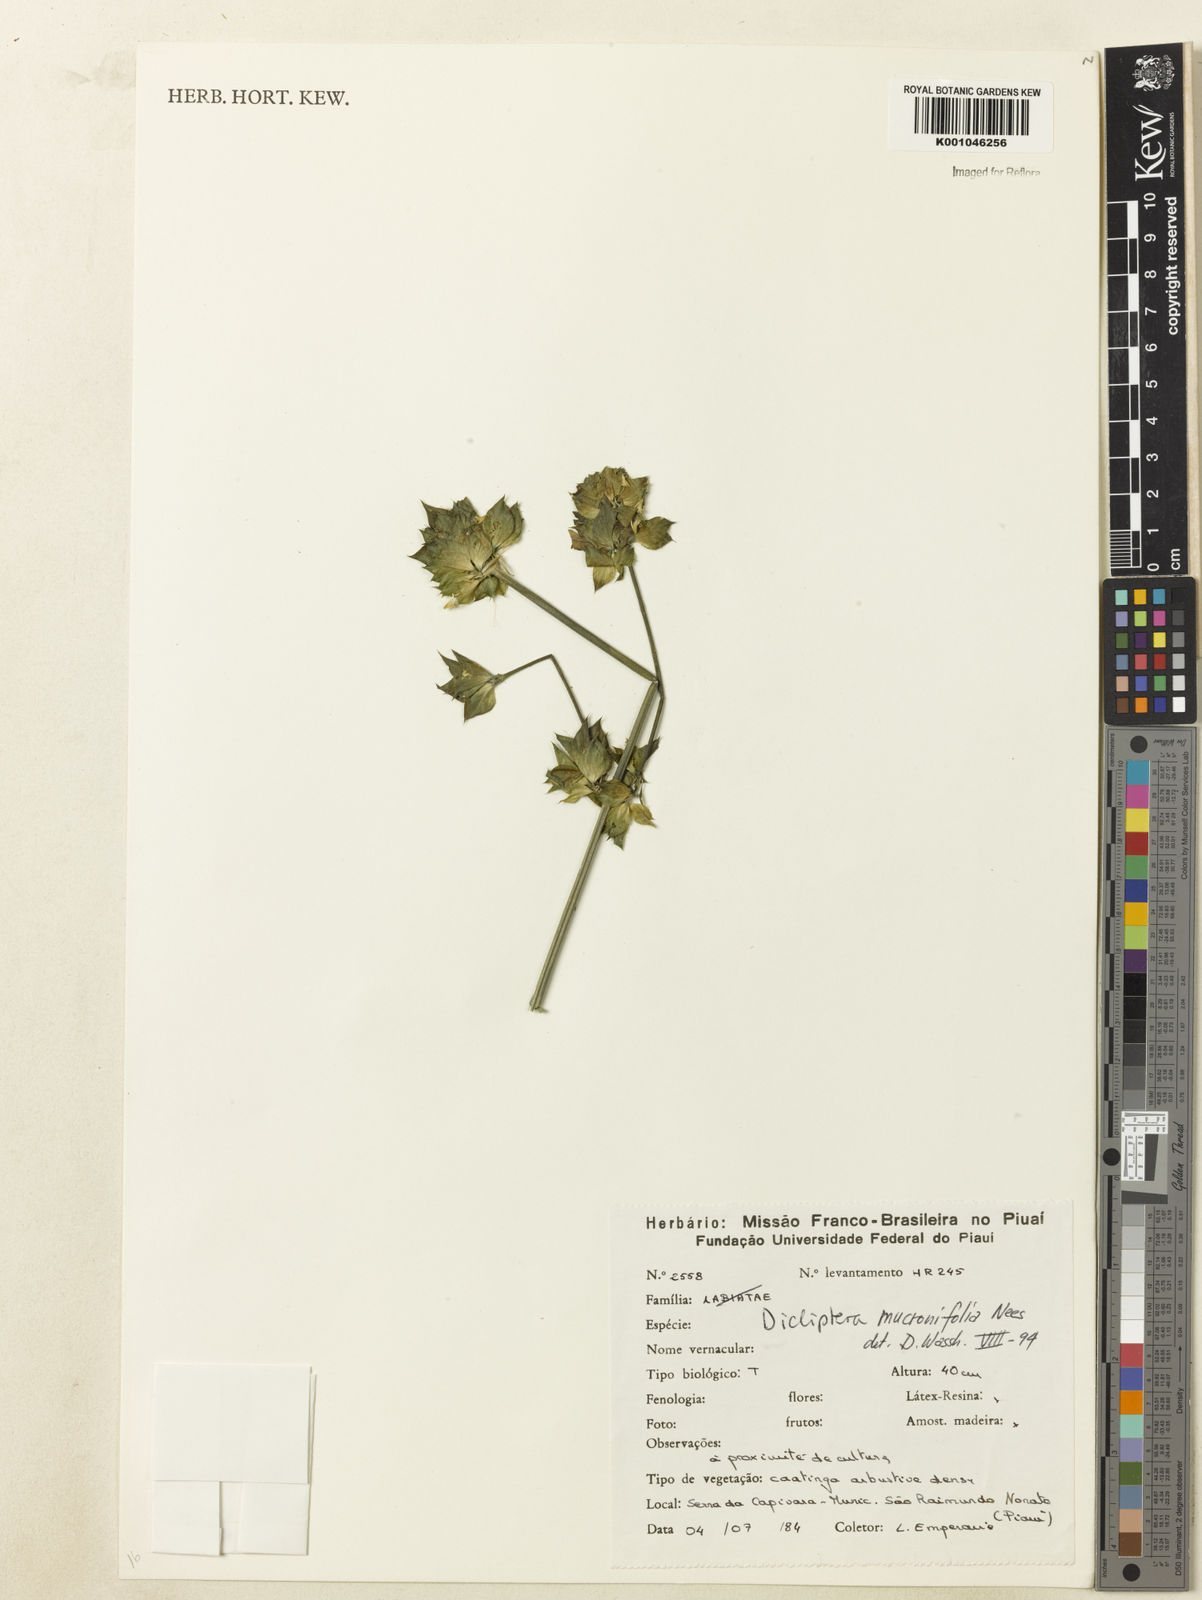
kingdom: Plantae
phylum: Tracheophyta
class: Magnoliopsida
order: Lamiales
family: Acanthaceae
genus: Dicliptera
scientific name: Dicliptera mucronifolia
